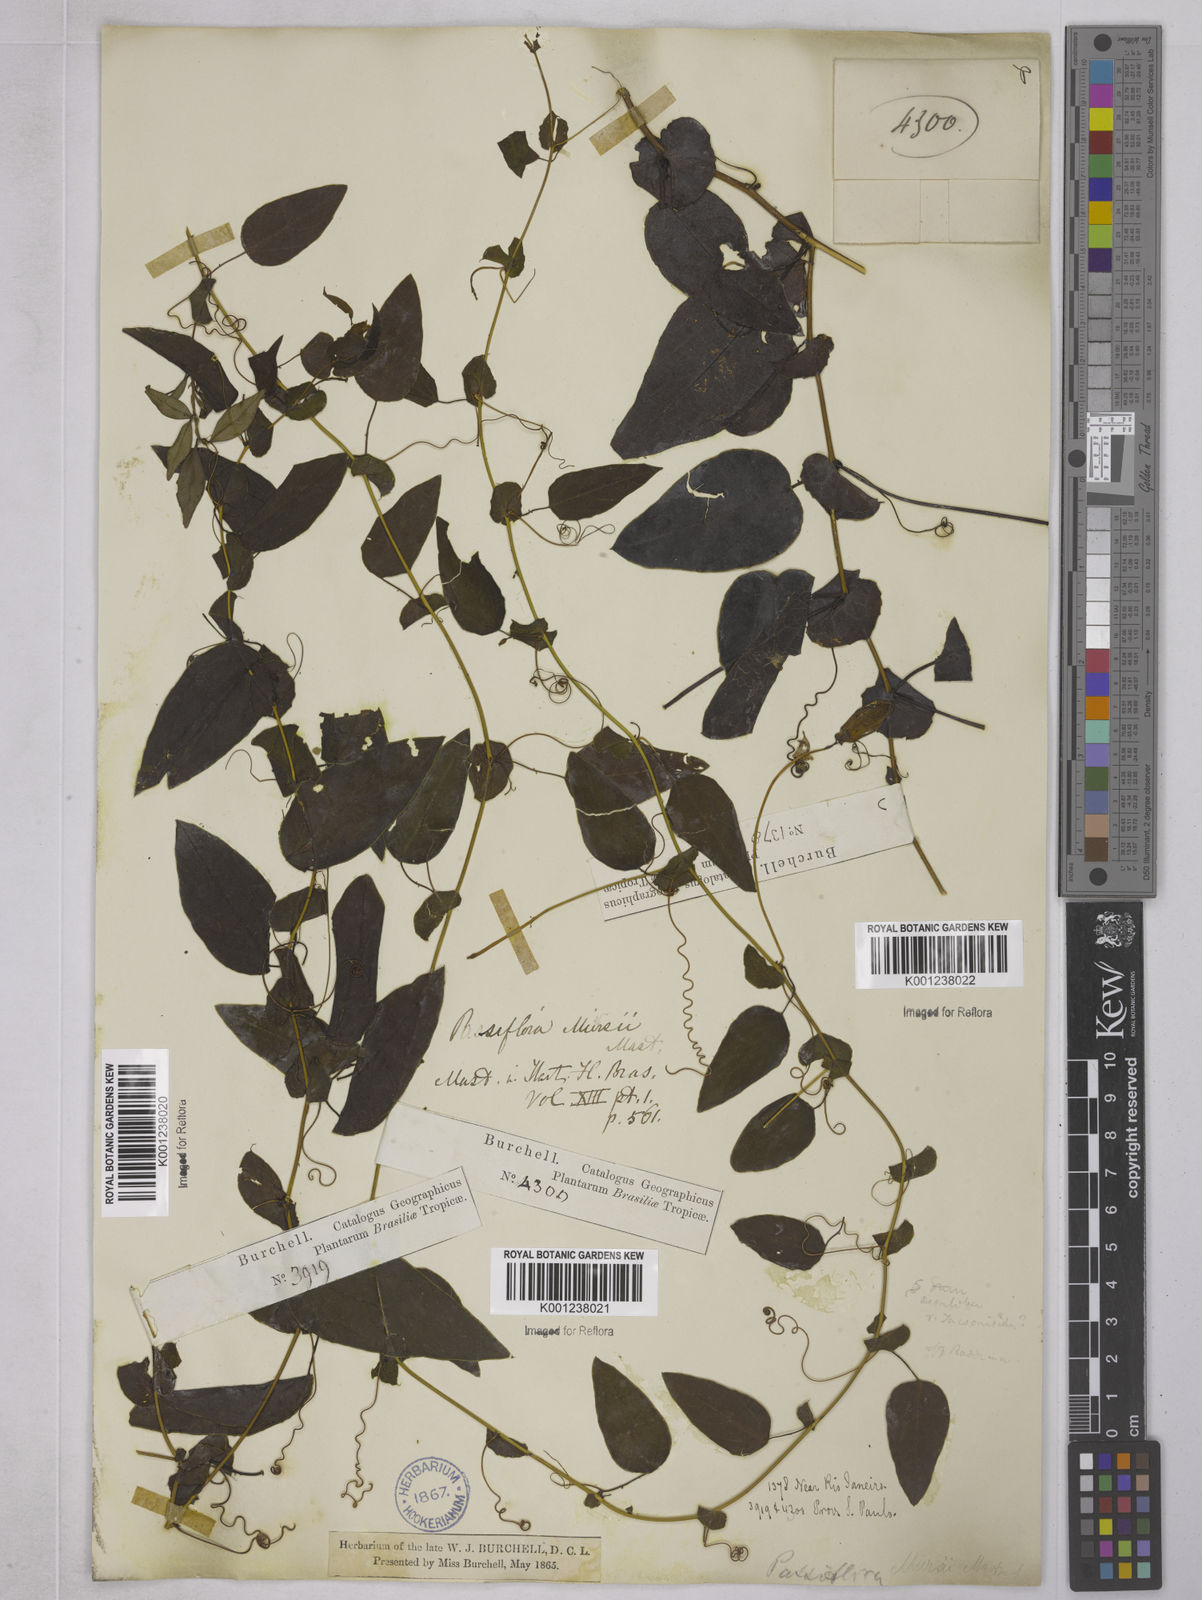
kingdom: Plantae
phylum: Tracheophyta
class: Magnoliopsida
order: Malpighiales
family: Passifloraceae
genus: Passiflora
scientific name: Passiflora miersii
